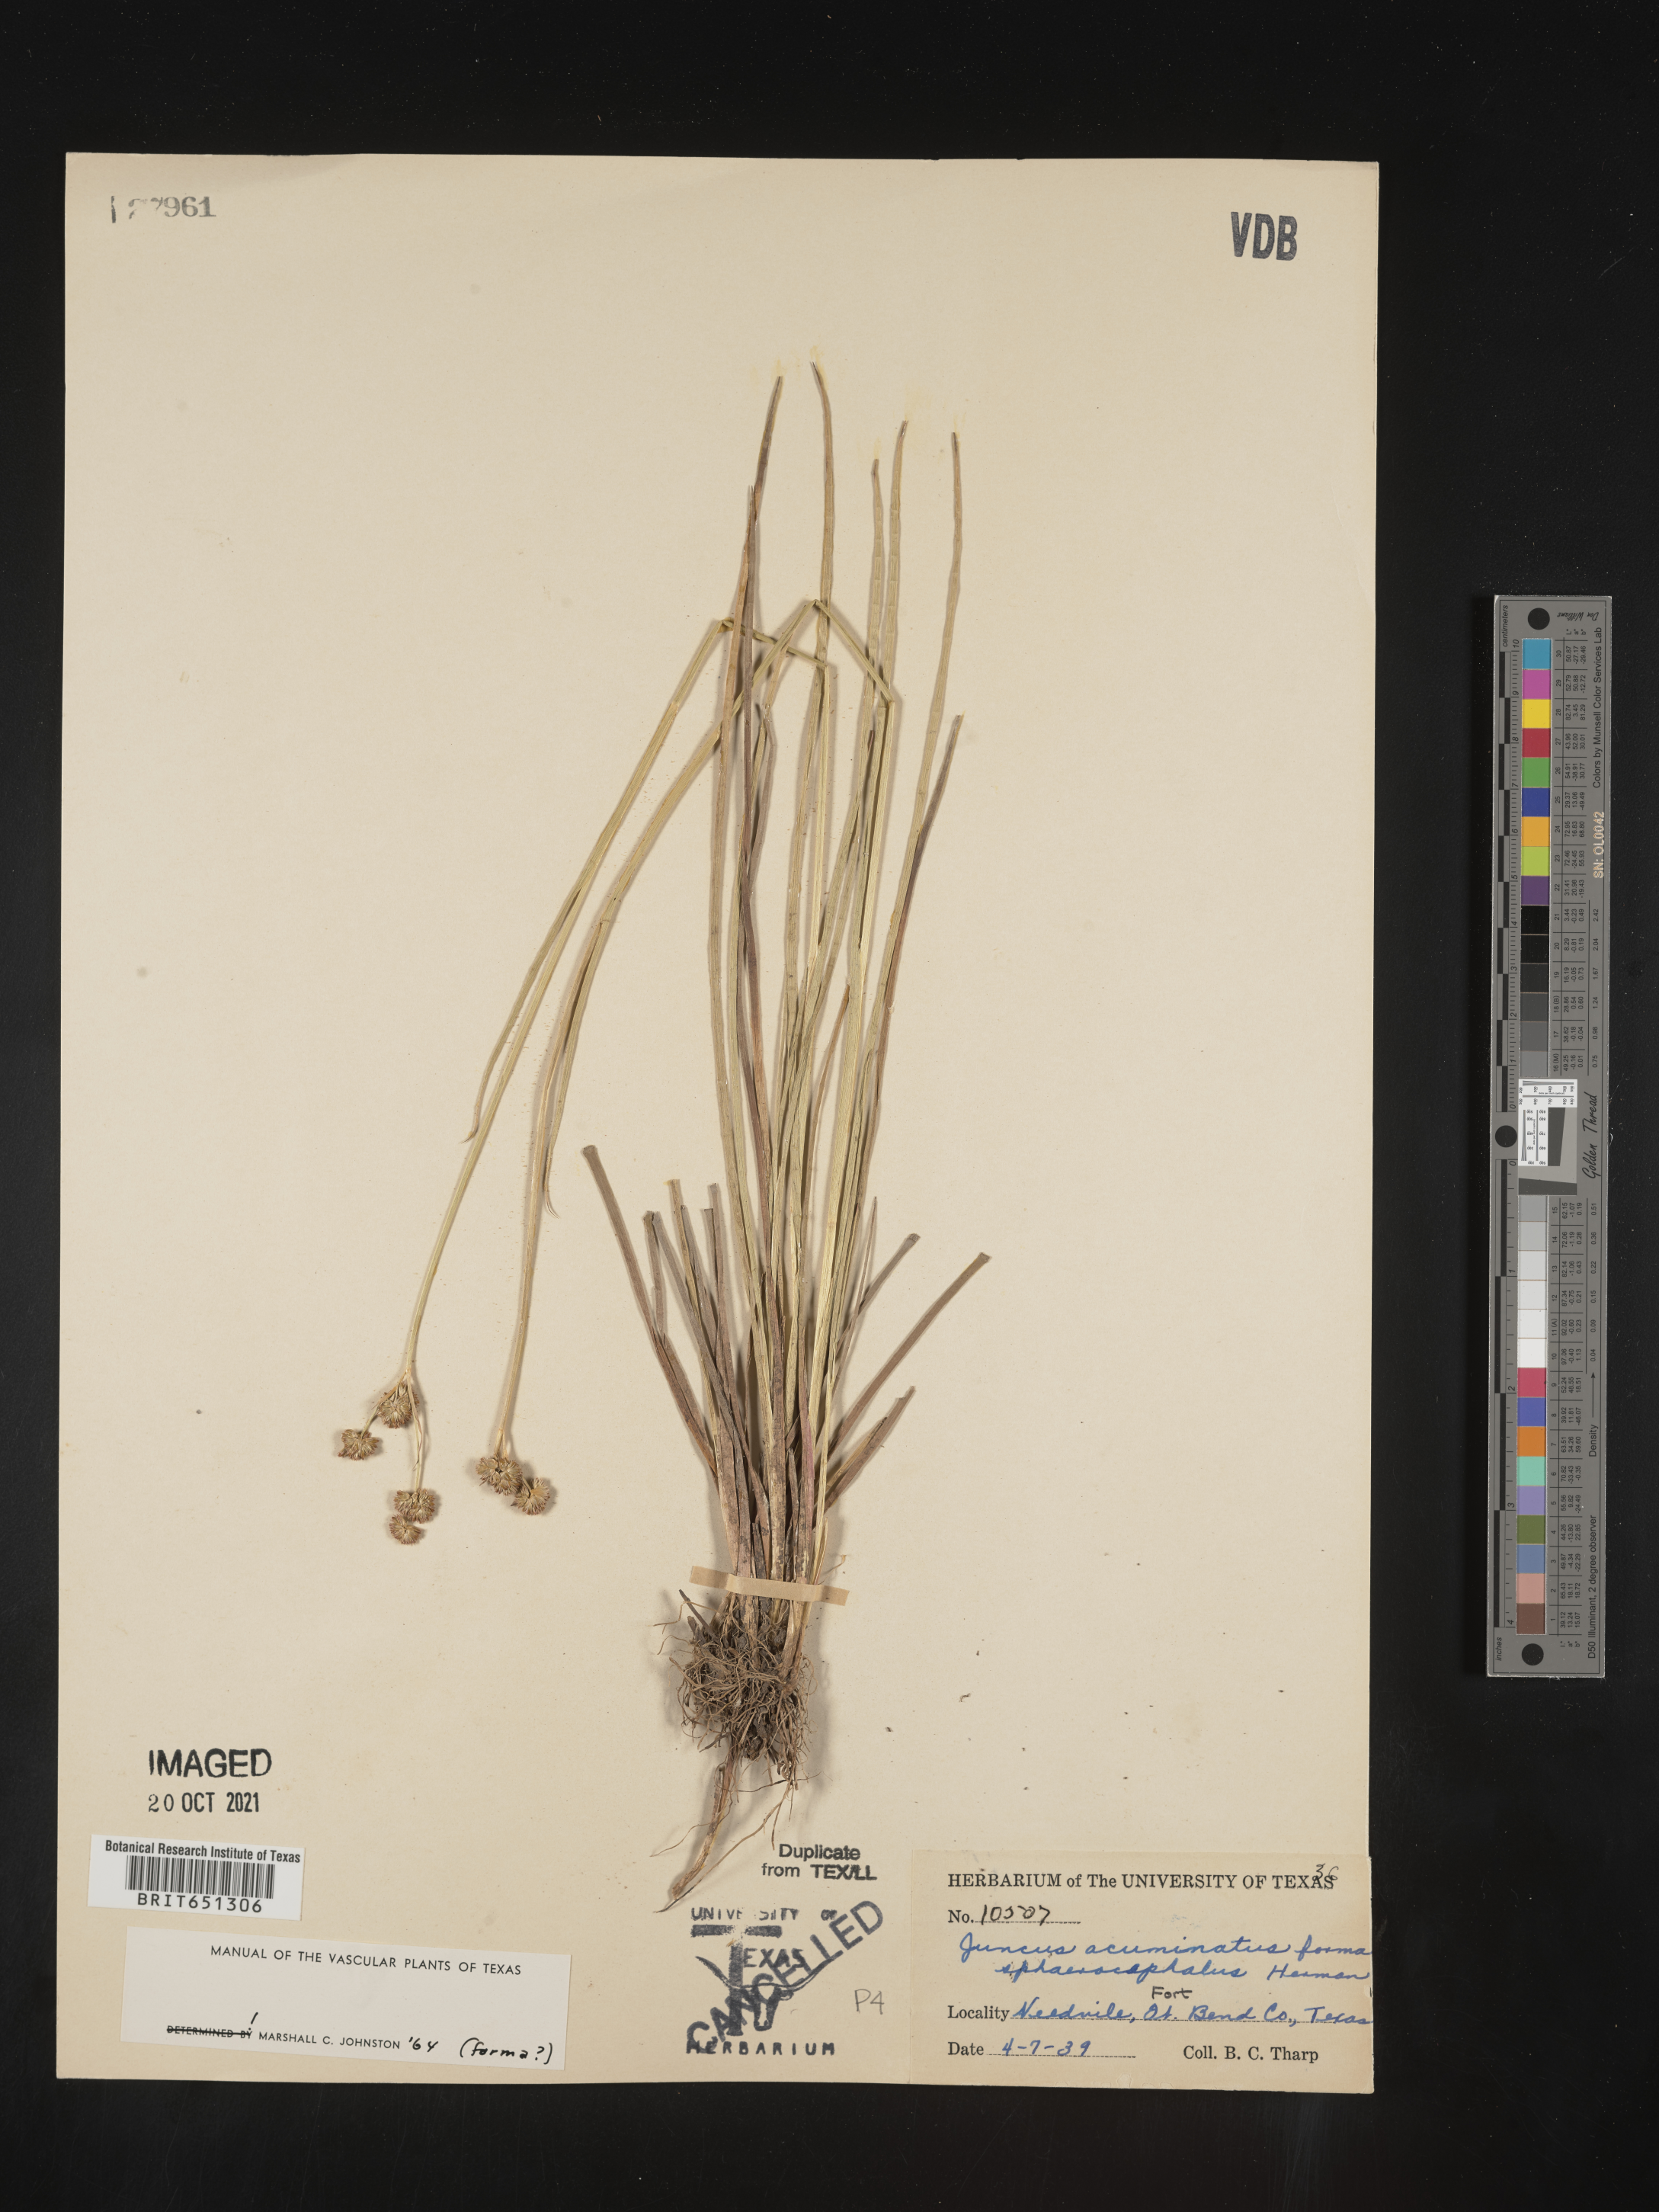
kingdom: Plantae
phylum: Tracheophyta
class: Liliopsida
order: Poales
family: Juncaceae
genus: Juncus
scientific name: Juncus acuminatus
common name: Knotty-leaved rush
